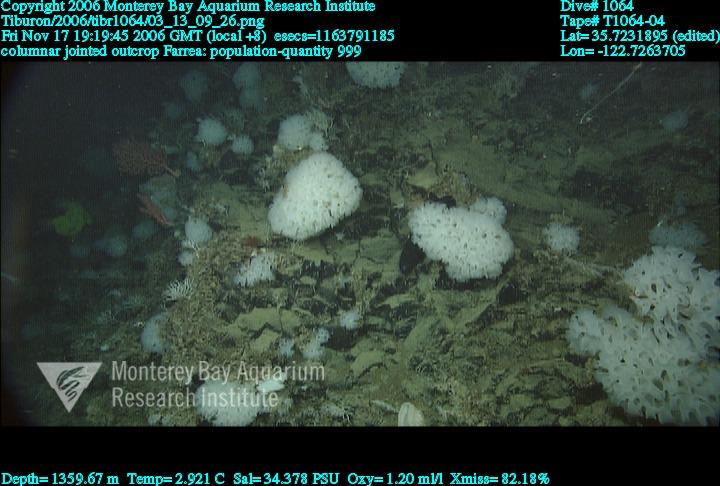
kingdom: Animalia
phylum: Porifera
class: Hexactinellida
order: Sceptrulophora
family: Farreidae
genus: Farrea
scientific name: Farrea
